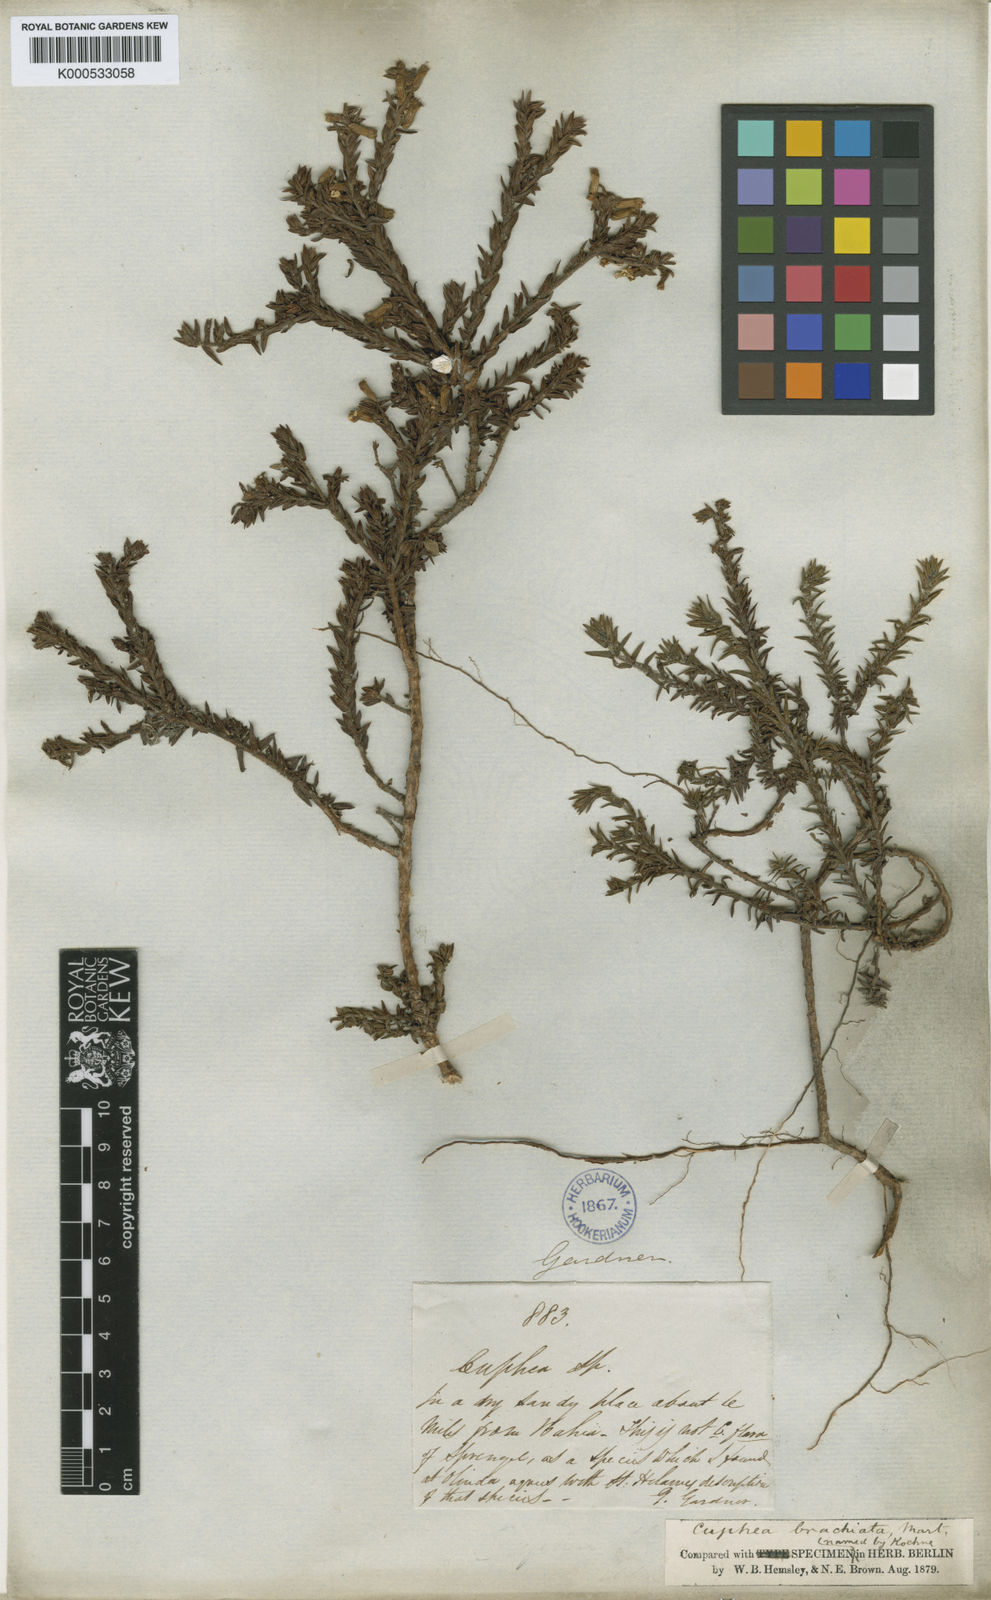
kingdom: Plantae
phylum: Tracheophyta
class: Magnoliopsida
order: Myrtales
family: Lythraceae
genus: Cuphea
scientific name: Cuphea brachiata
